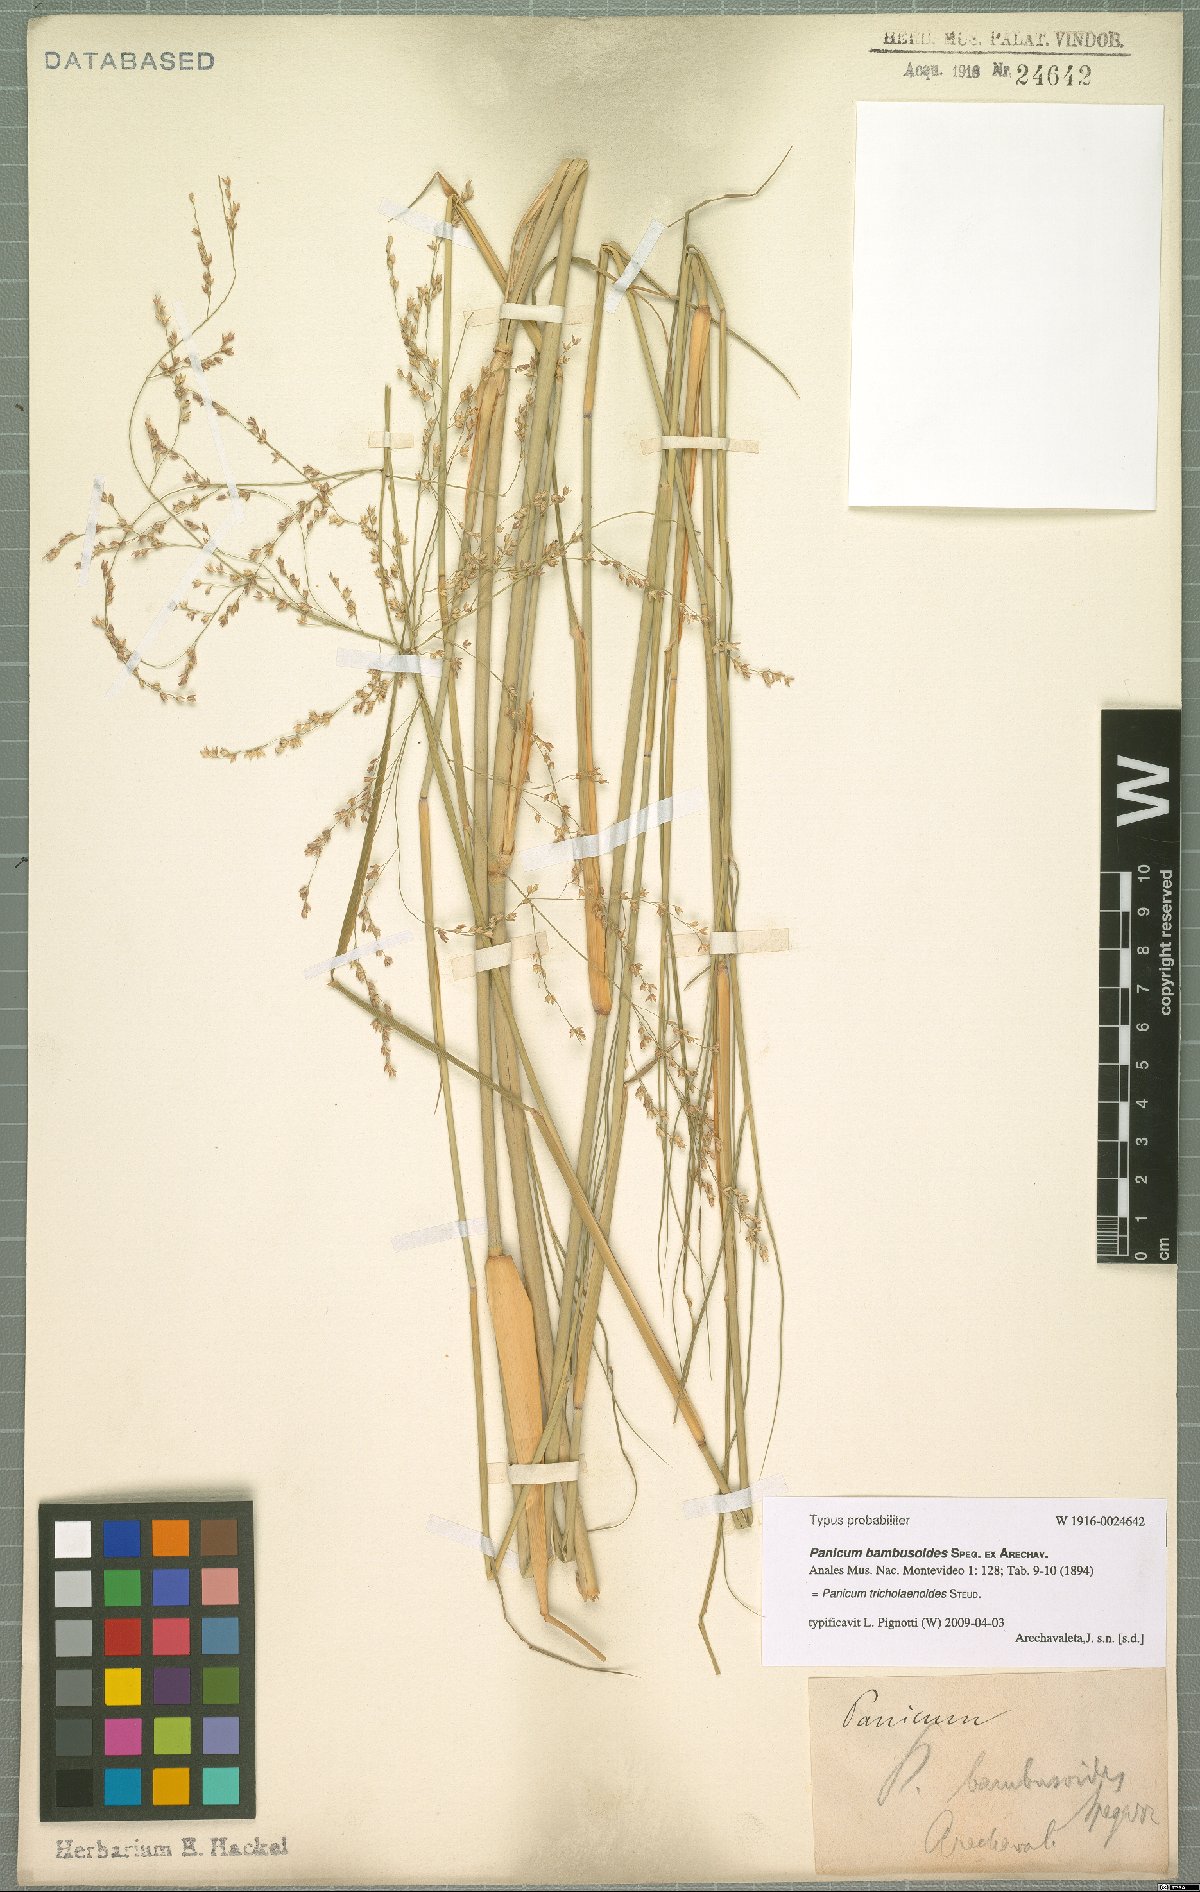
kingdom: Plantae
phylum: Tracheophyta
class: Liliopsida
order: Poales
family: Poaceae
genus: Panicum
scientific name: Panicum tricholaenoides
